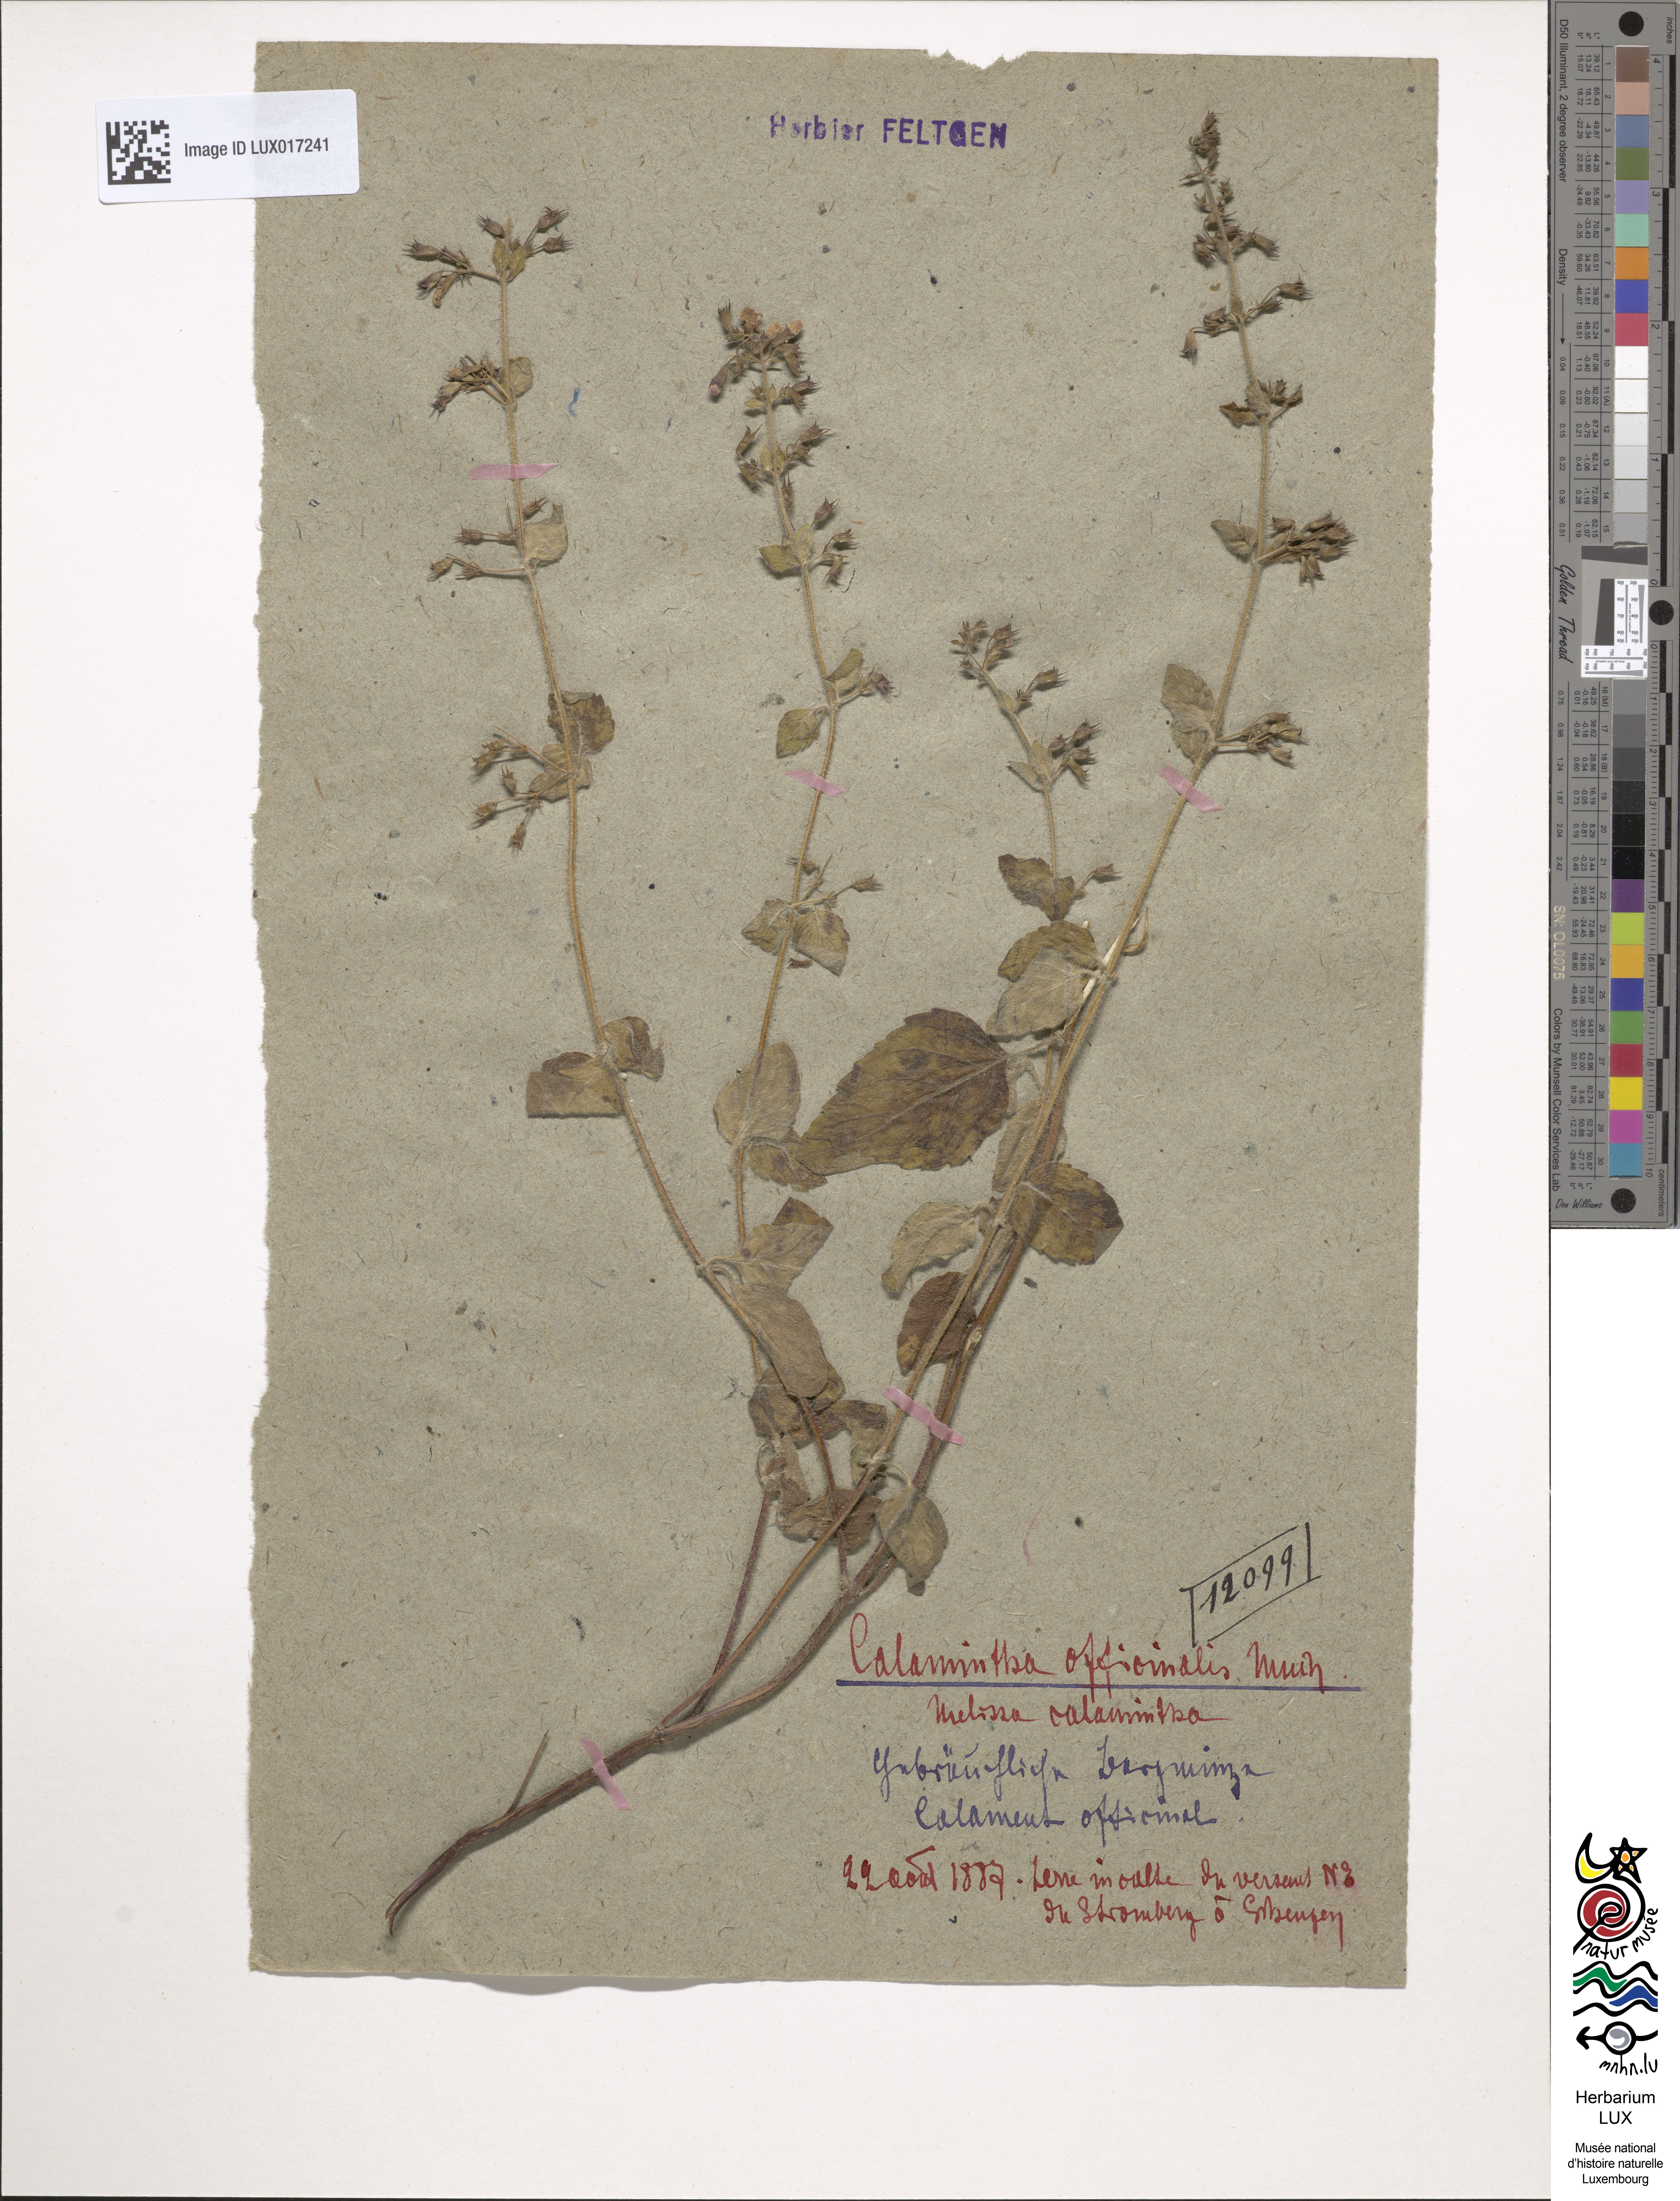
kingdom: Plantae
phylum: Tracheophyta
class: Magnoliopsida
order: Lamiales
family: Lamiaceae
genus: Clinopodium
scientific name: Clinopodium menthifolium
